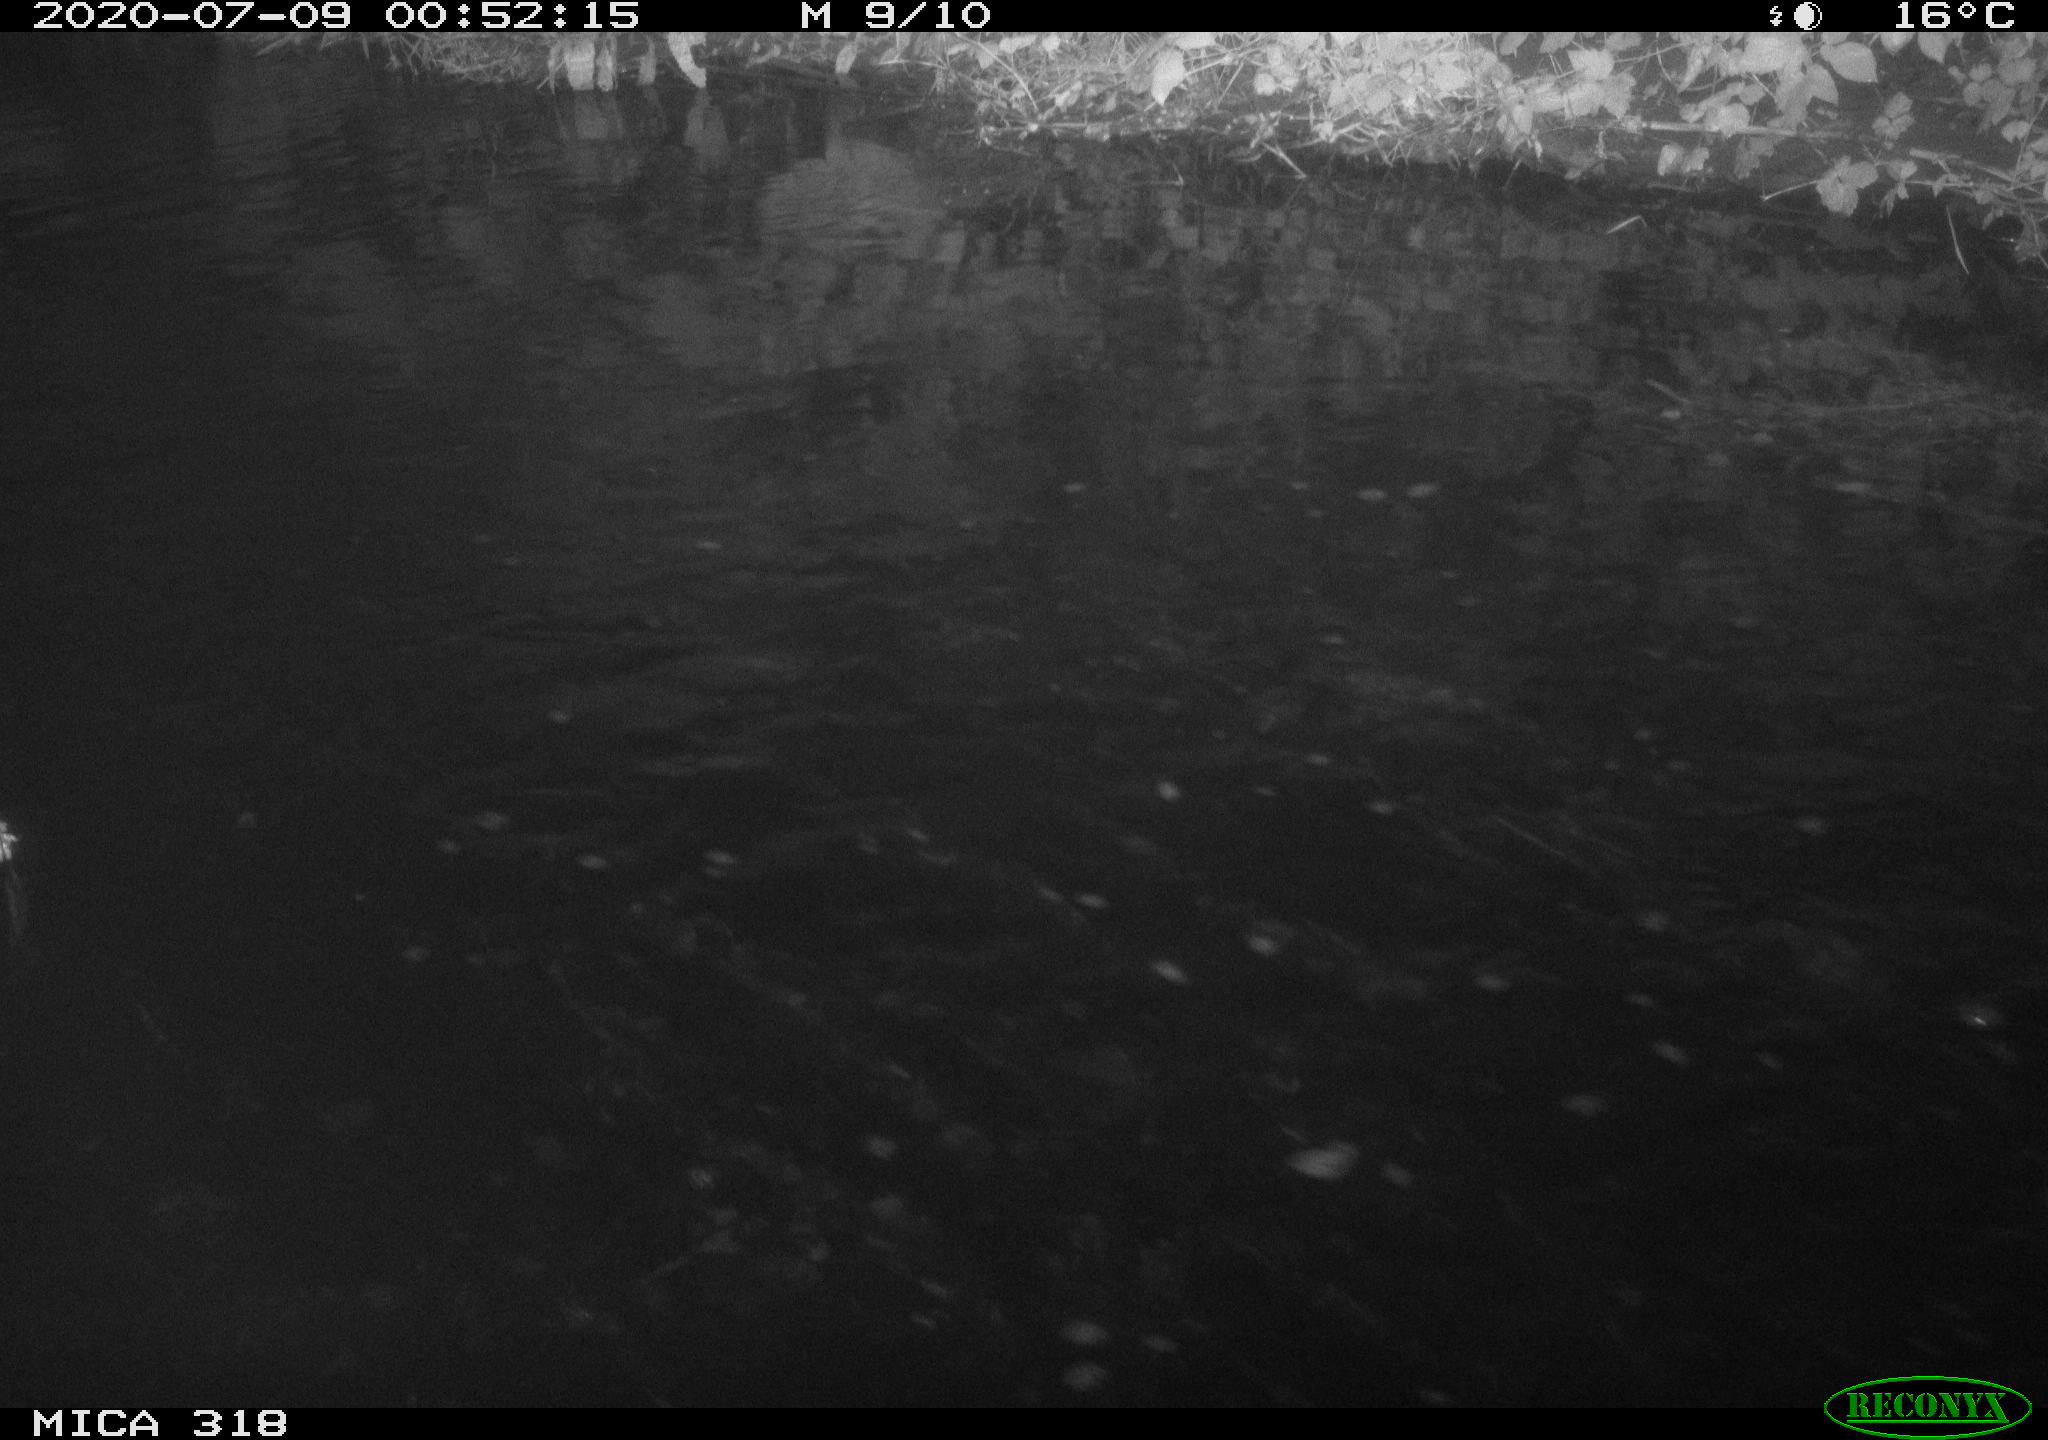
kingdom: Animalia
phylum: Chordata
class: Aves
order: Anseriformes
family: Anatidae
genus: Mareca
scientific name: Mareca strepera
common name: Gadwall
